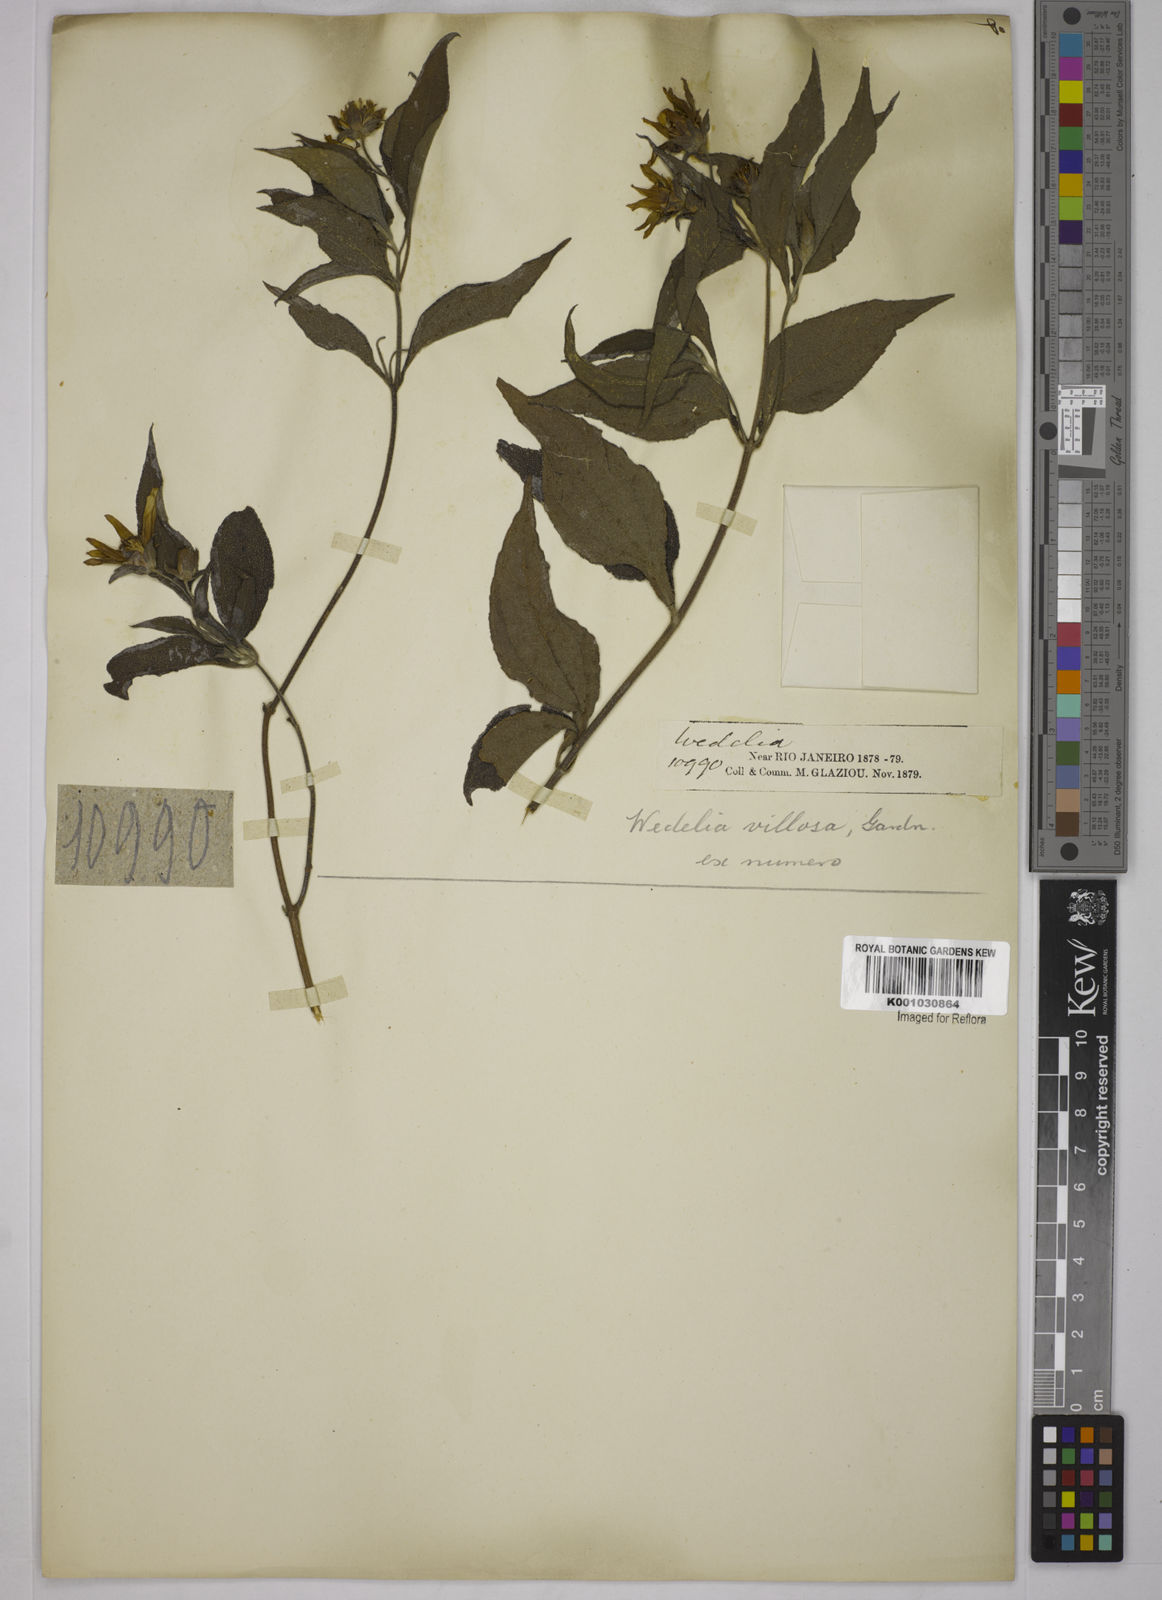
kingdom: Plantae
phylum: Tracheophyta
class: Magnoliopsida
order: Asterales
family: Asteraceae
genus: Wedelia
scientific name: Wedelia villosa
